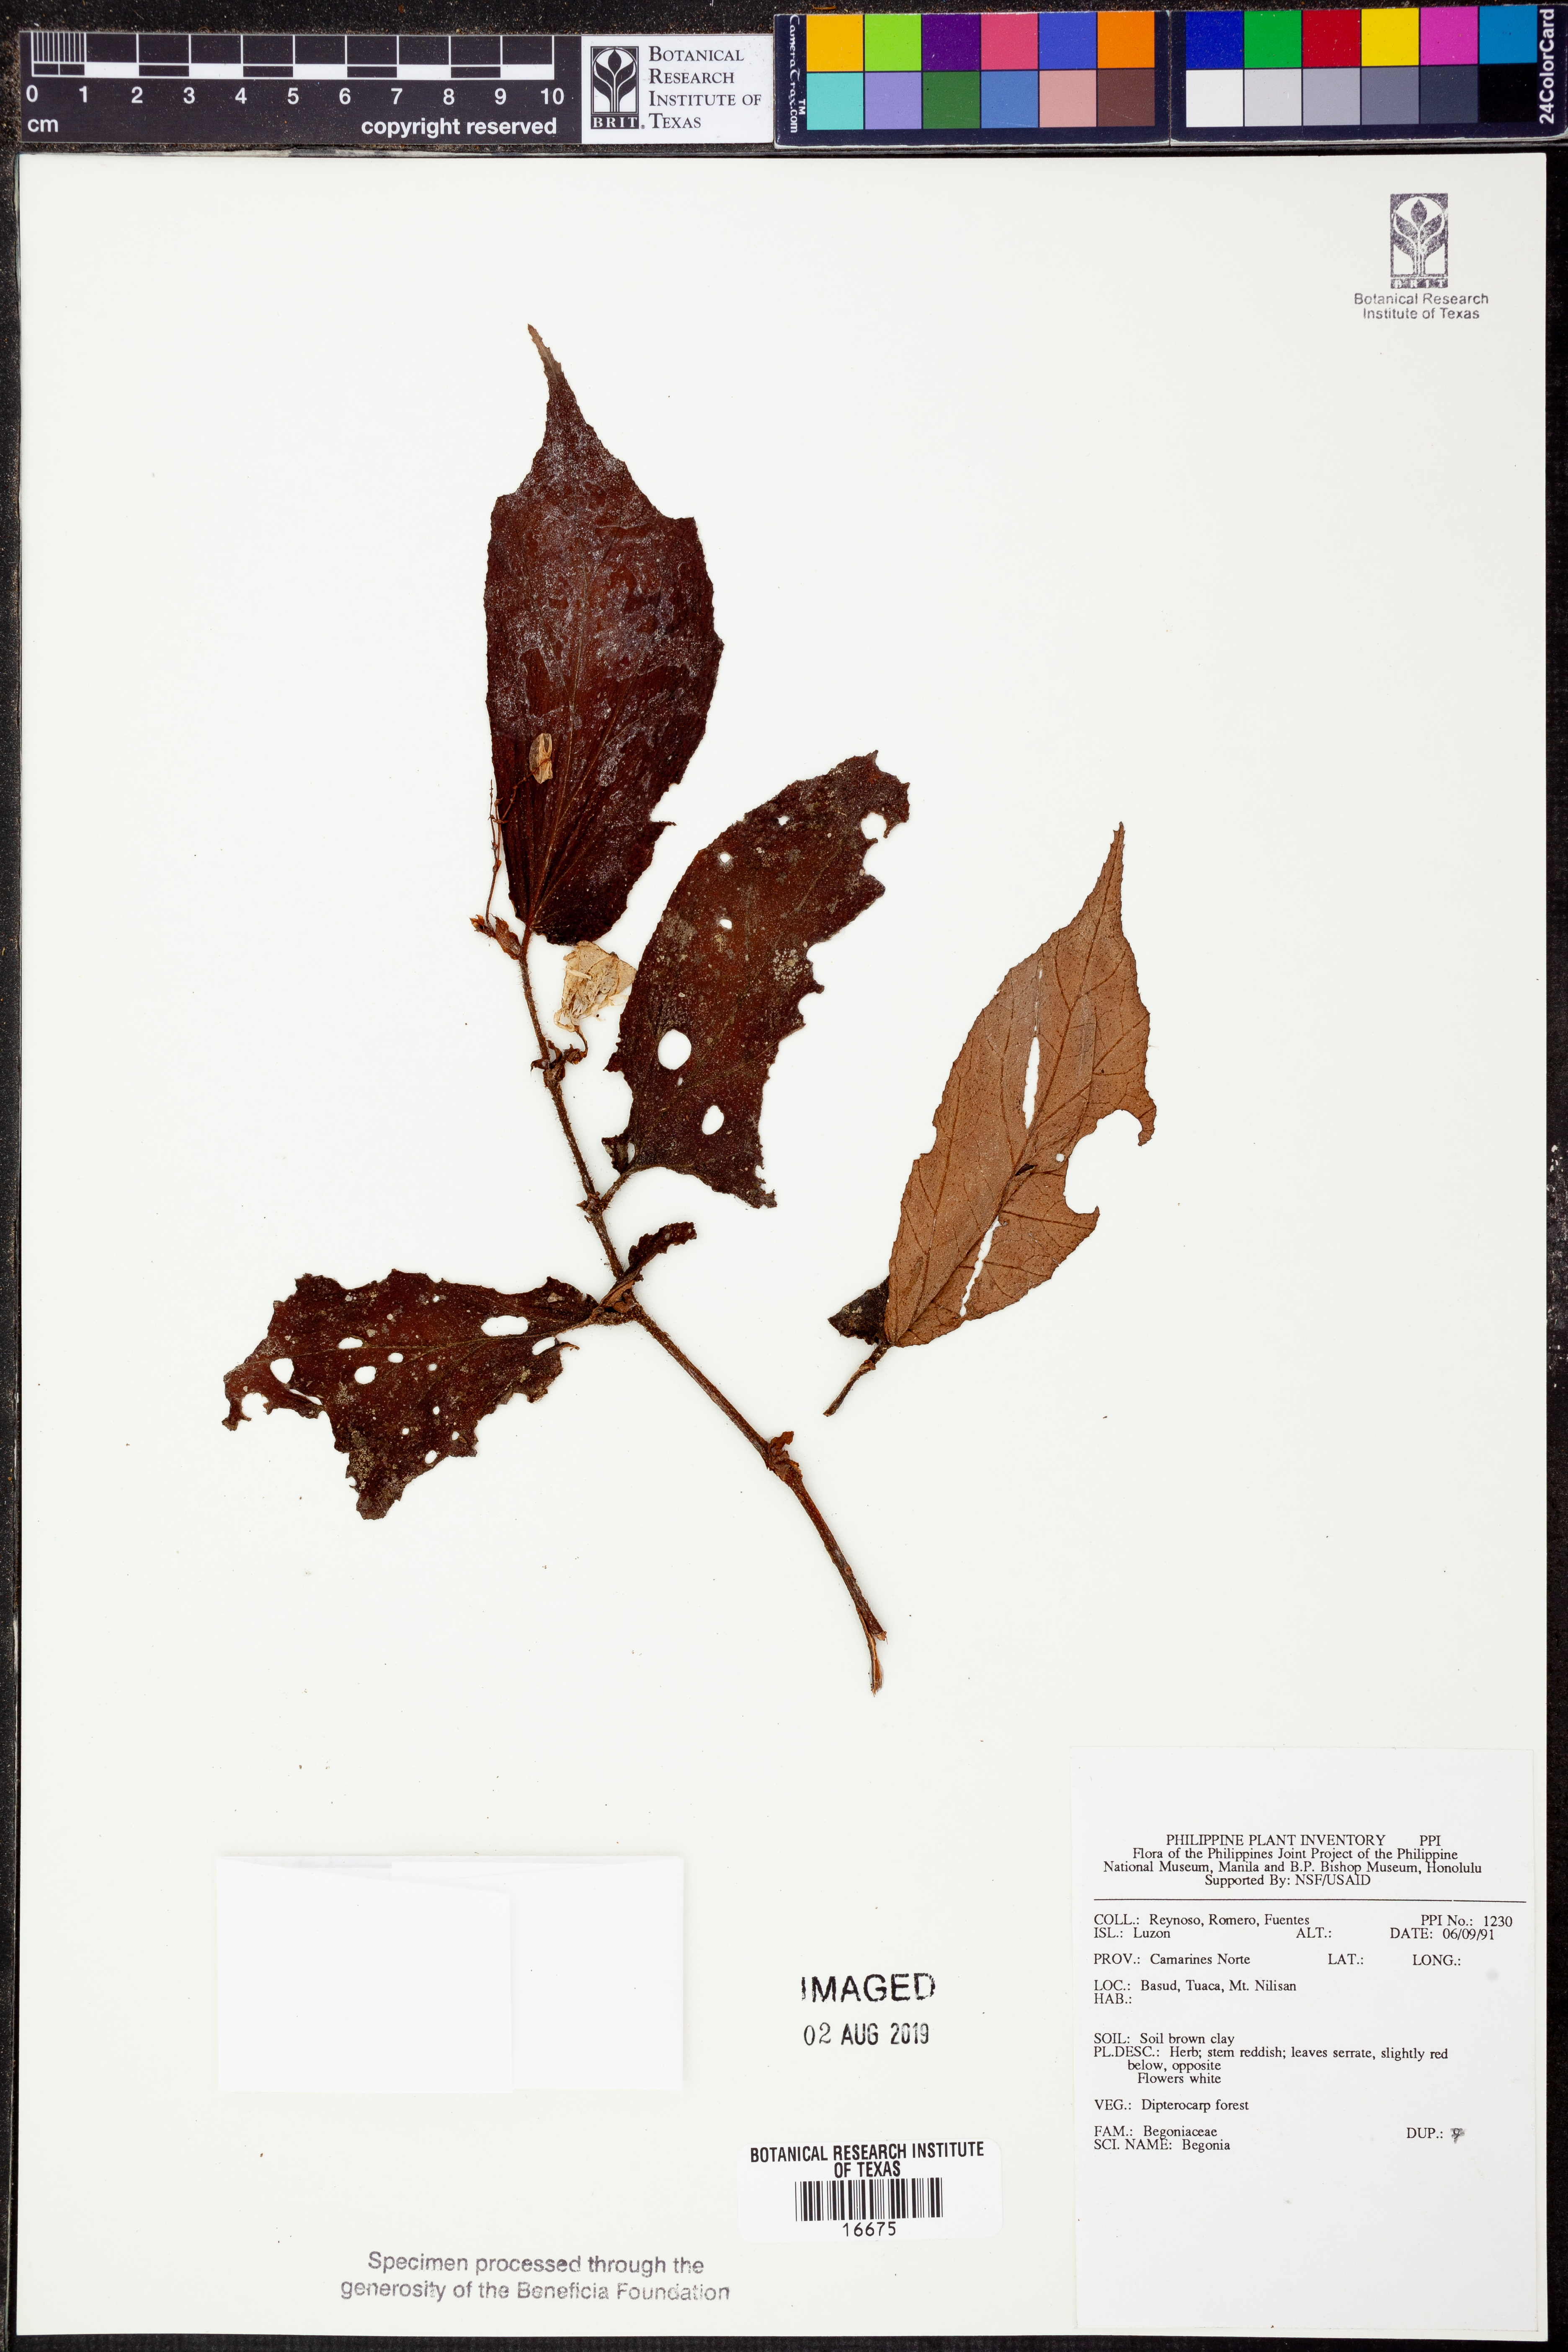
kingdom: Plantae
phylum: Tracheophyta
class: Magnoliopsida
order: Cucurbitales
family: Begoniaceae
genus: Begonia
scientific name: Begonia
